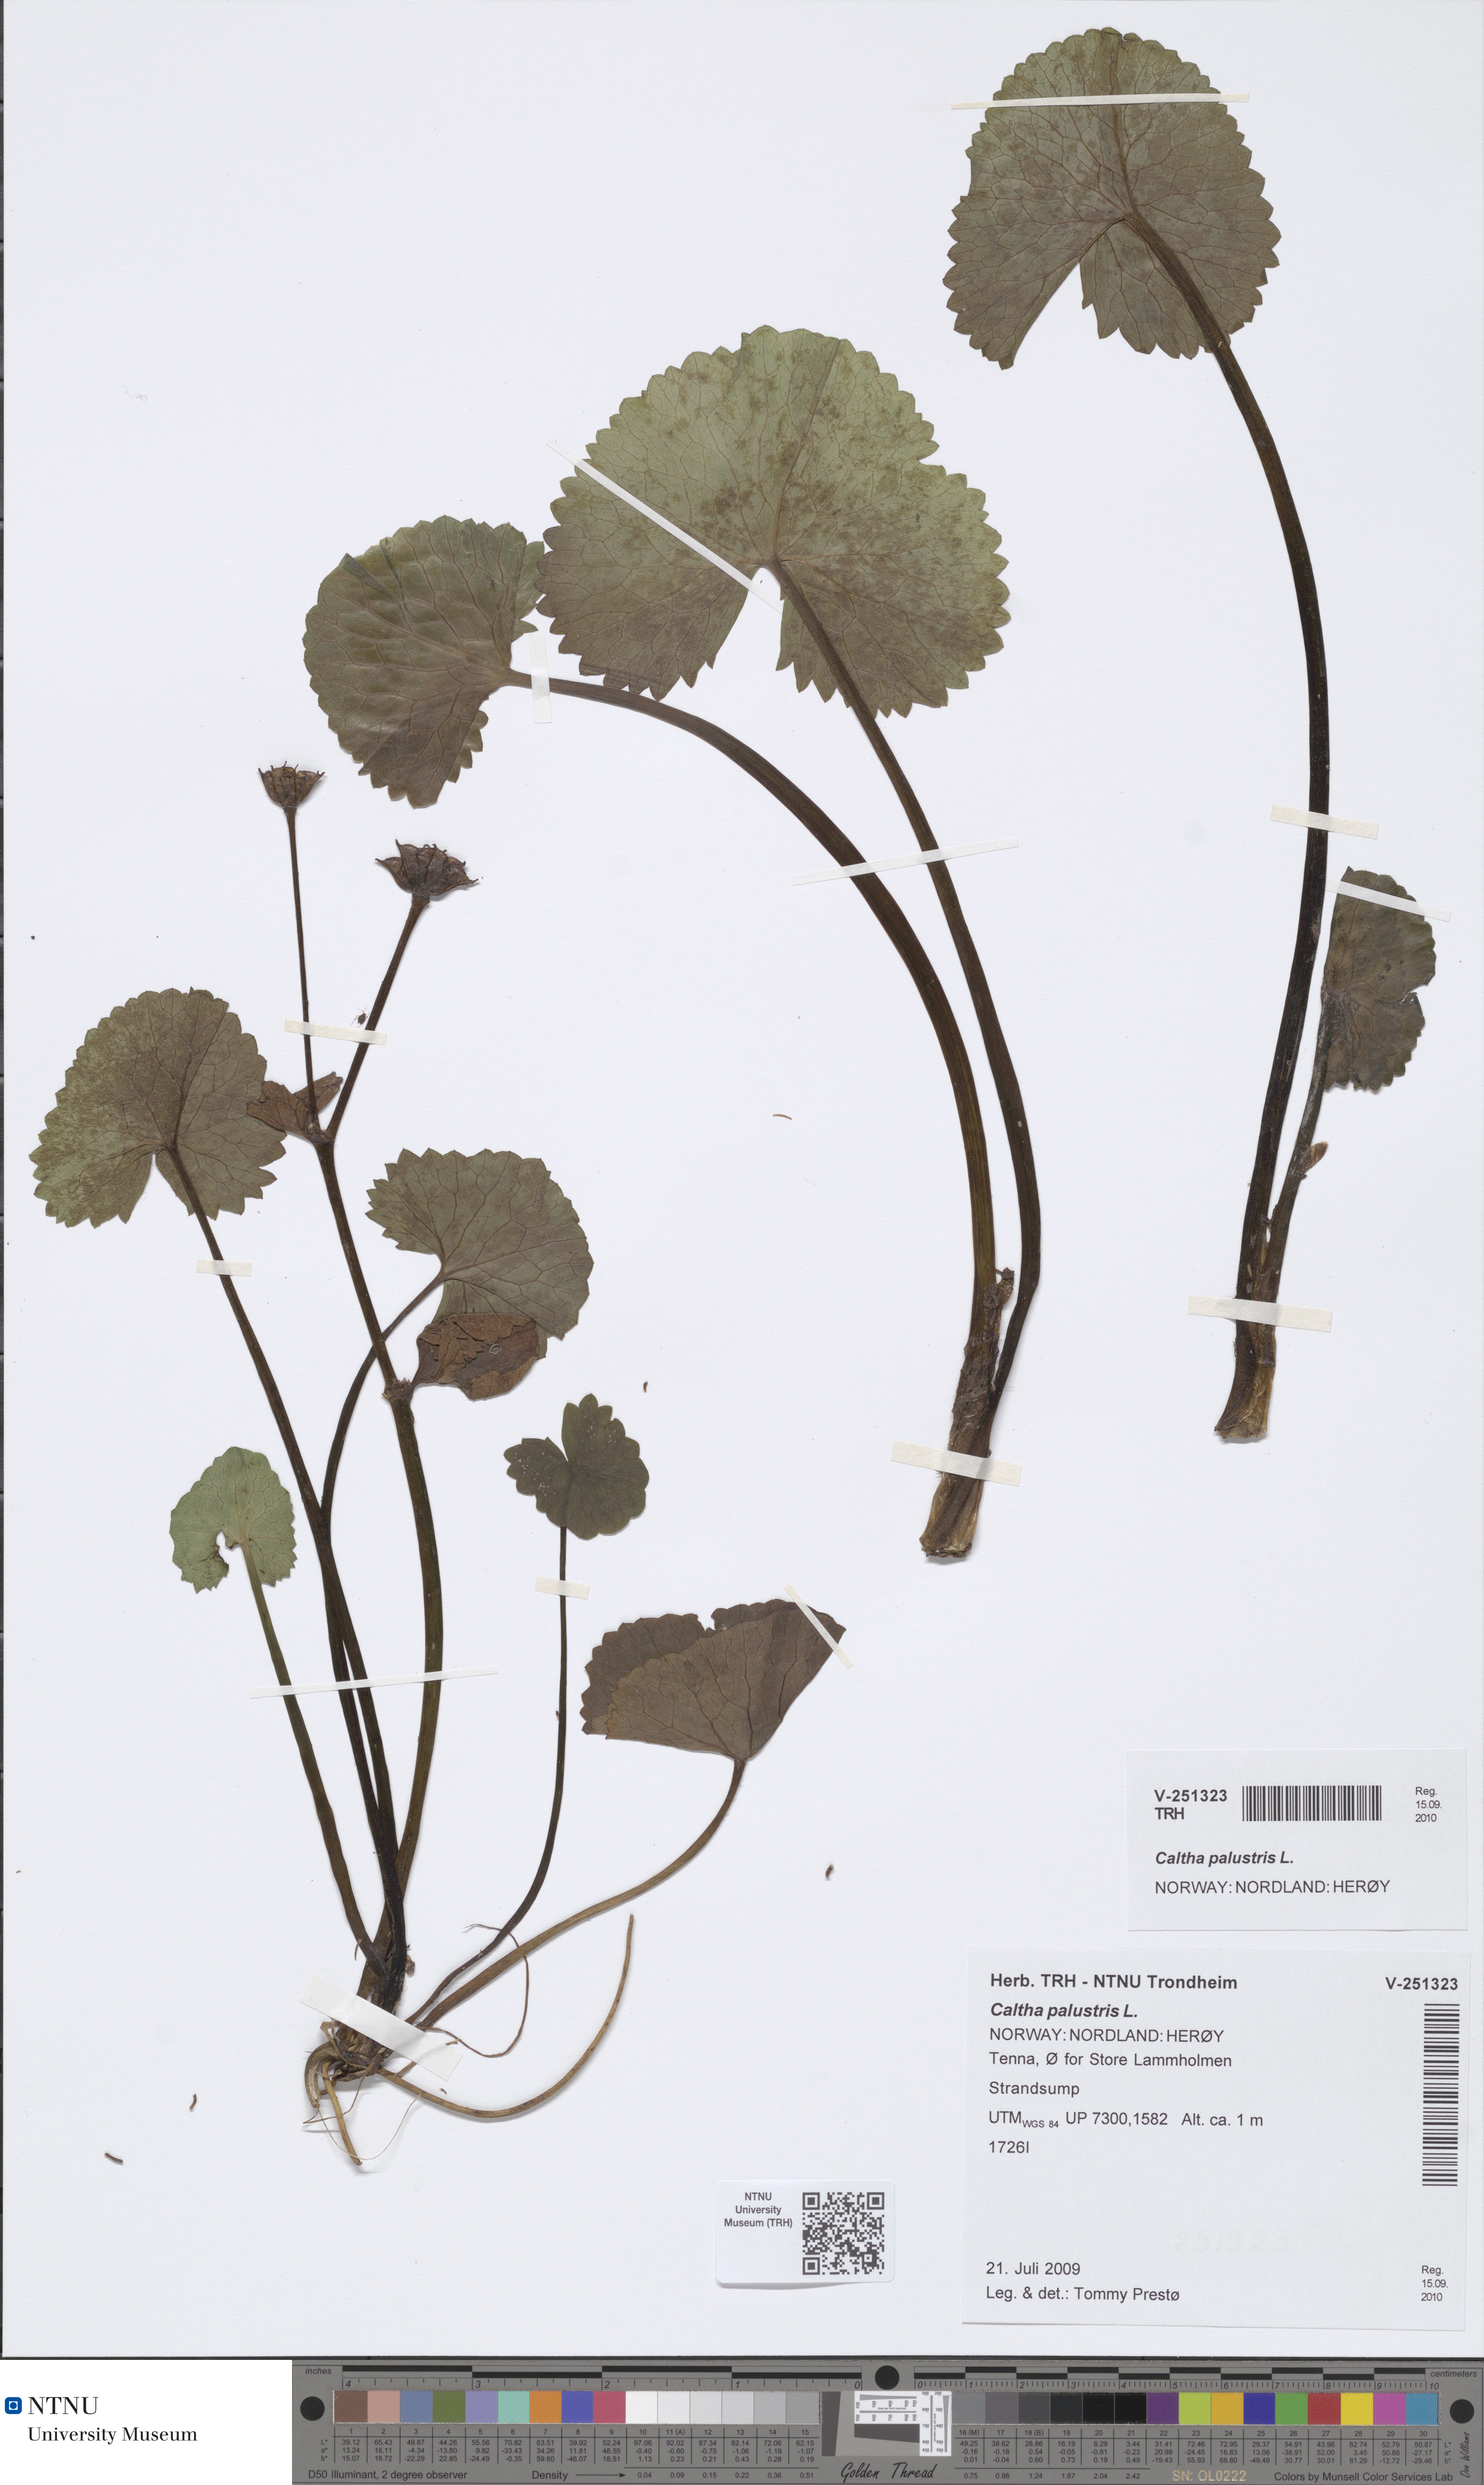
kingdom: Plantae
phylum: Tracheophyta
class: Magnoliopsida
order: Ranunculales
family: Ranunculaceae
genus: Caltha
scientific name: Caltha palustris
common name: Marsh marigold
